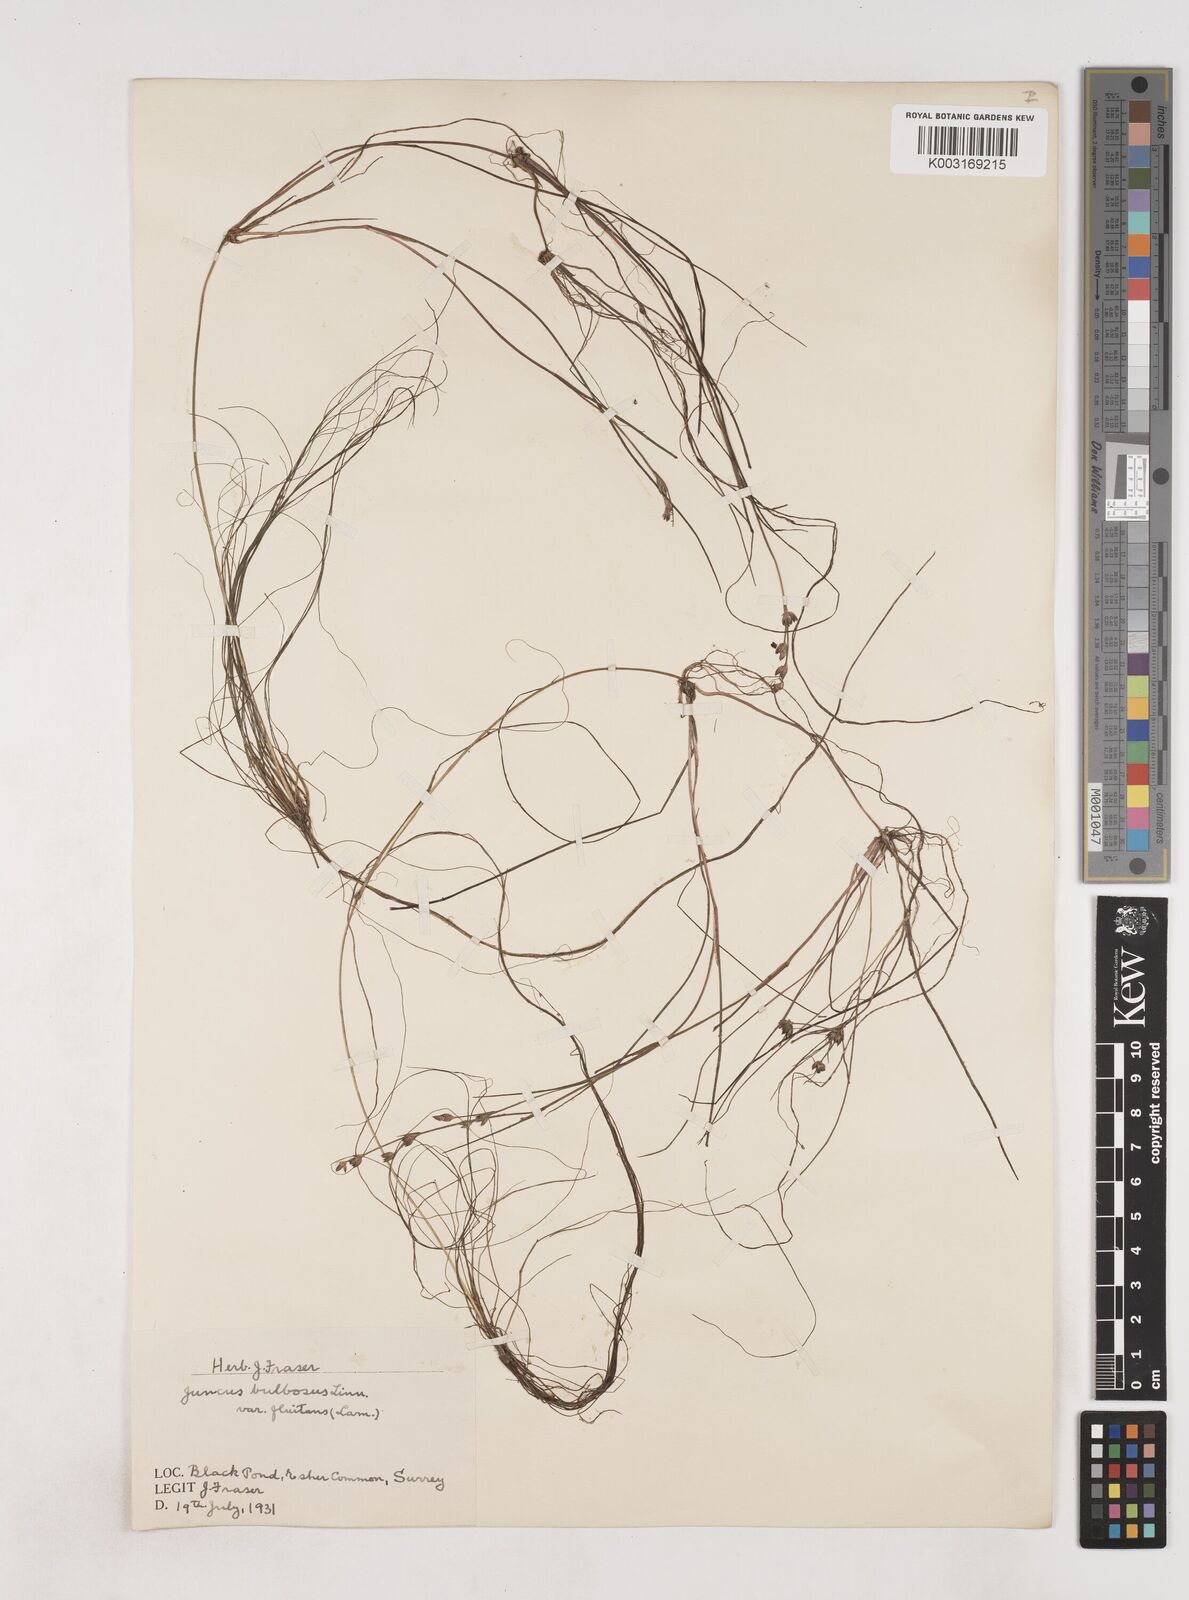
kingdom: Plantae
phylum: Tracheophyta
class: Liliopsida
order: Poales
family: Juncaceae
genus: Juncus
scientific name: Juncus bulbosus
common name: Bulbous rush
